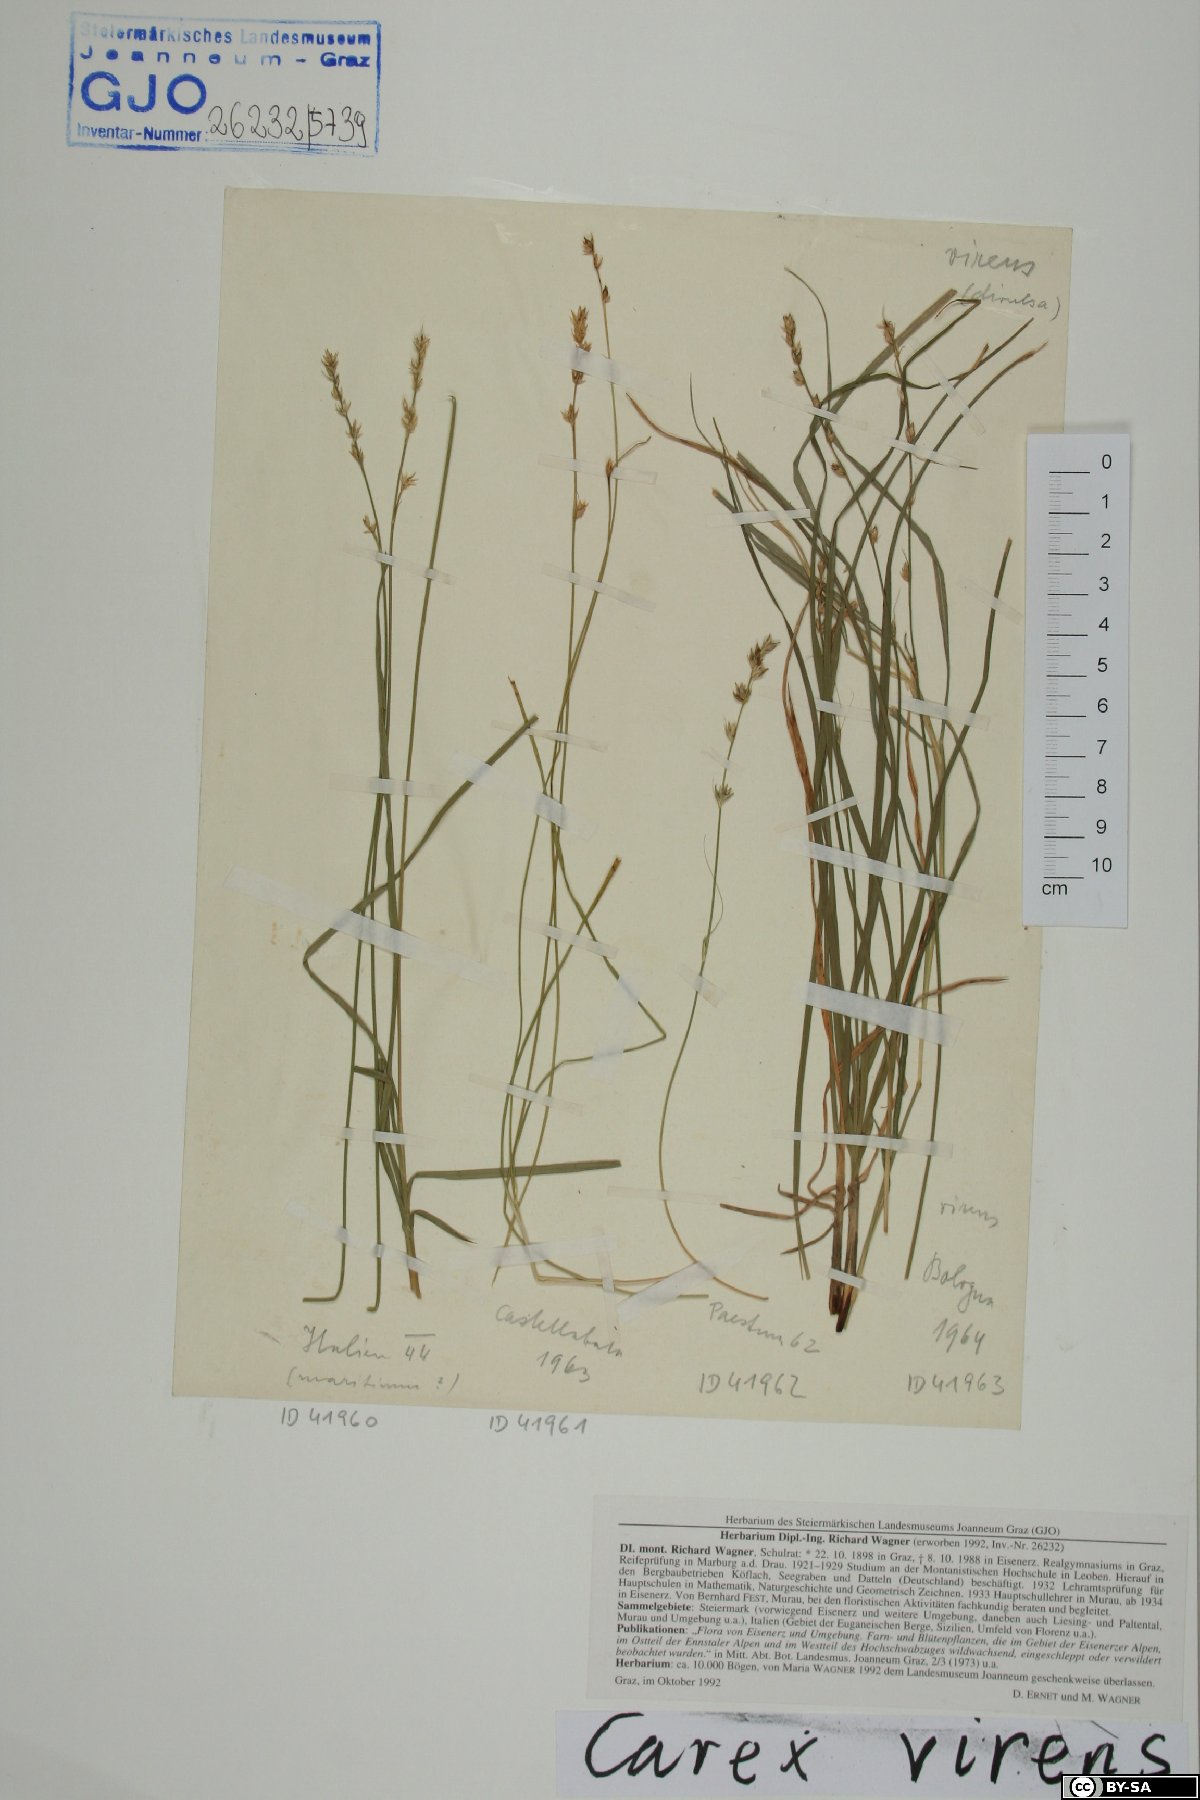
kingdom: Plantae
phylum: Tracheophyta
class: Liliopsida
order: Poales
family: Cyperaceae
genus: Carex
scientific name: Carex divulsa
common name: Grassland sedge
